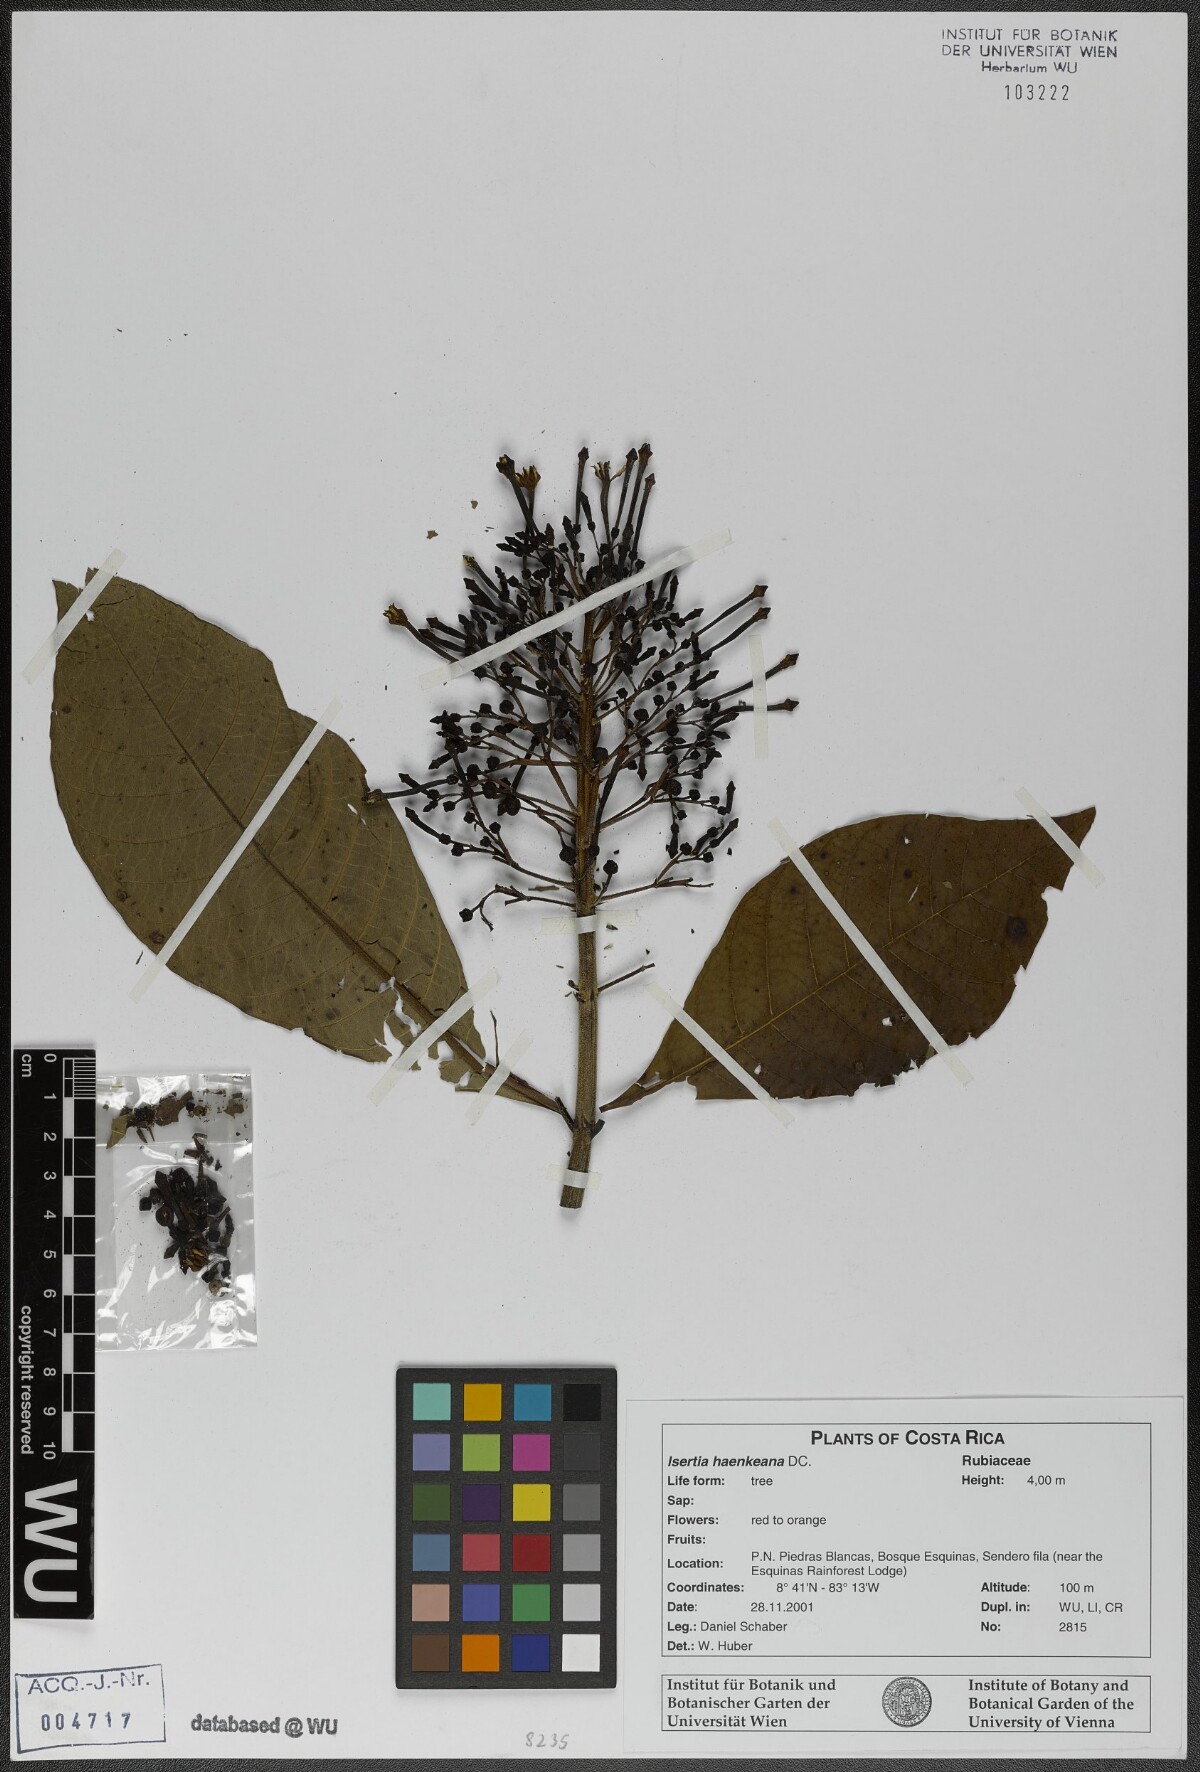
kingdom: Plantae
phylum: Tracheophyta
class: Magnoliopsida
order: Gentianales
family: Rubiaceae
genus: Isertia
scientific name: Isertia haenkeana
